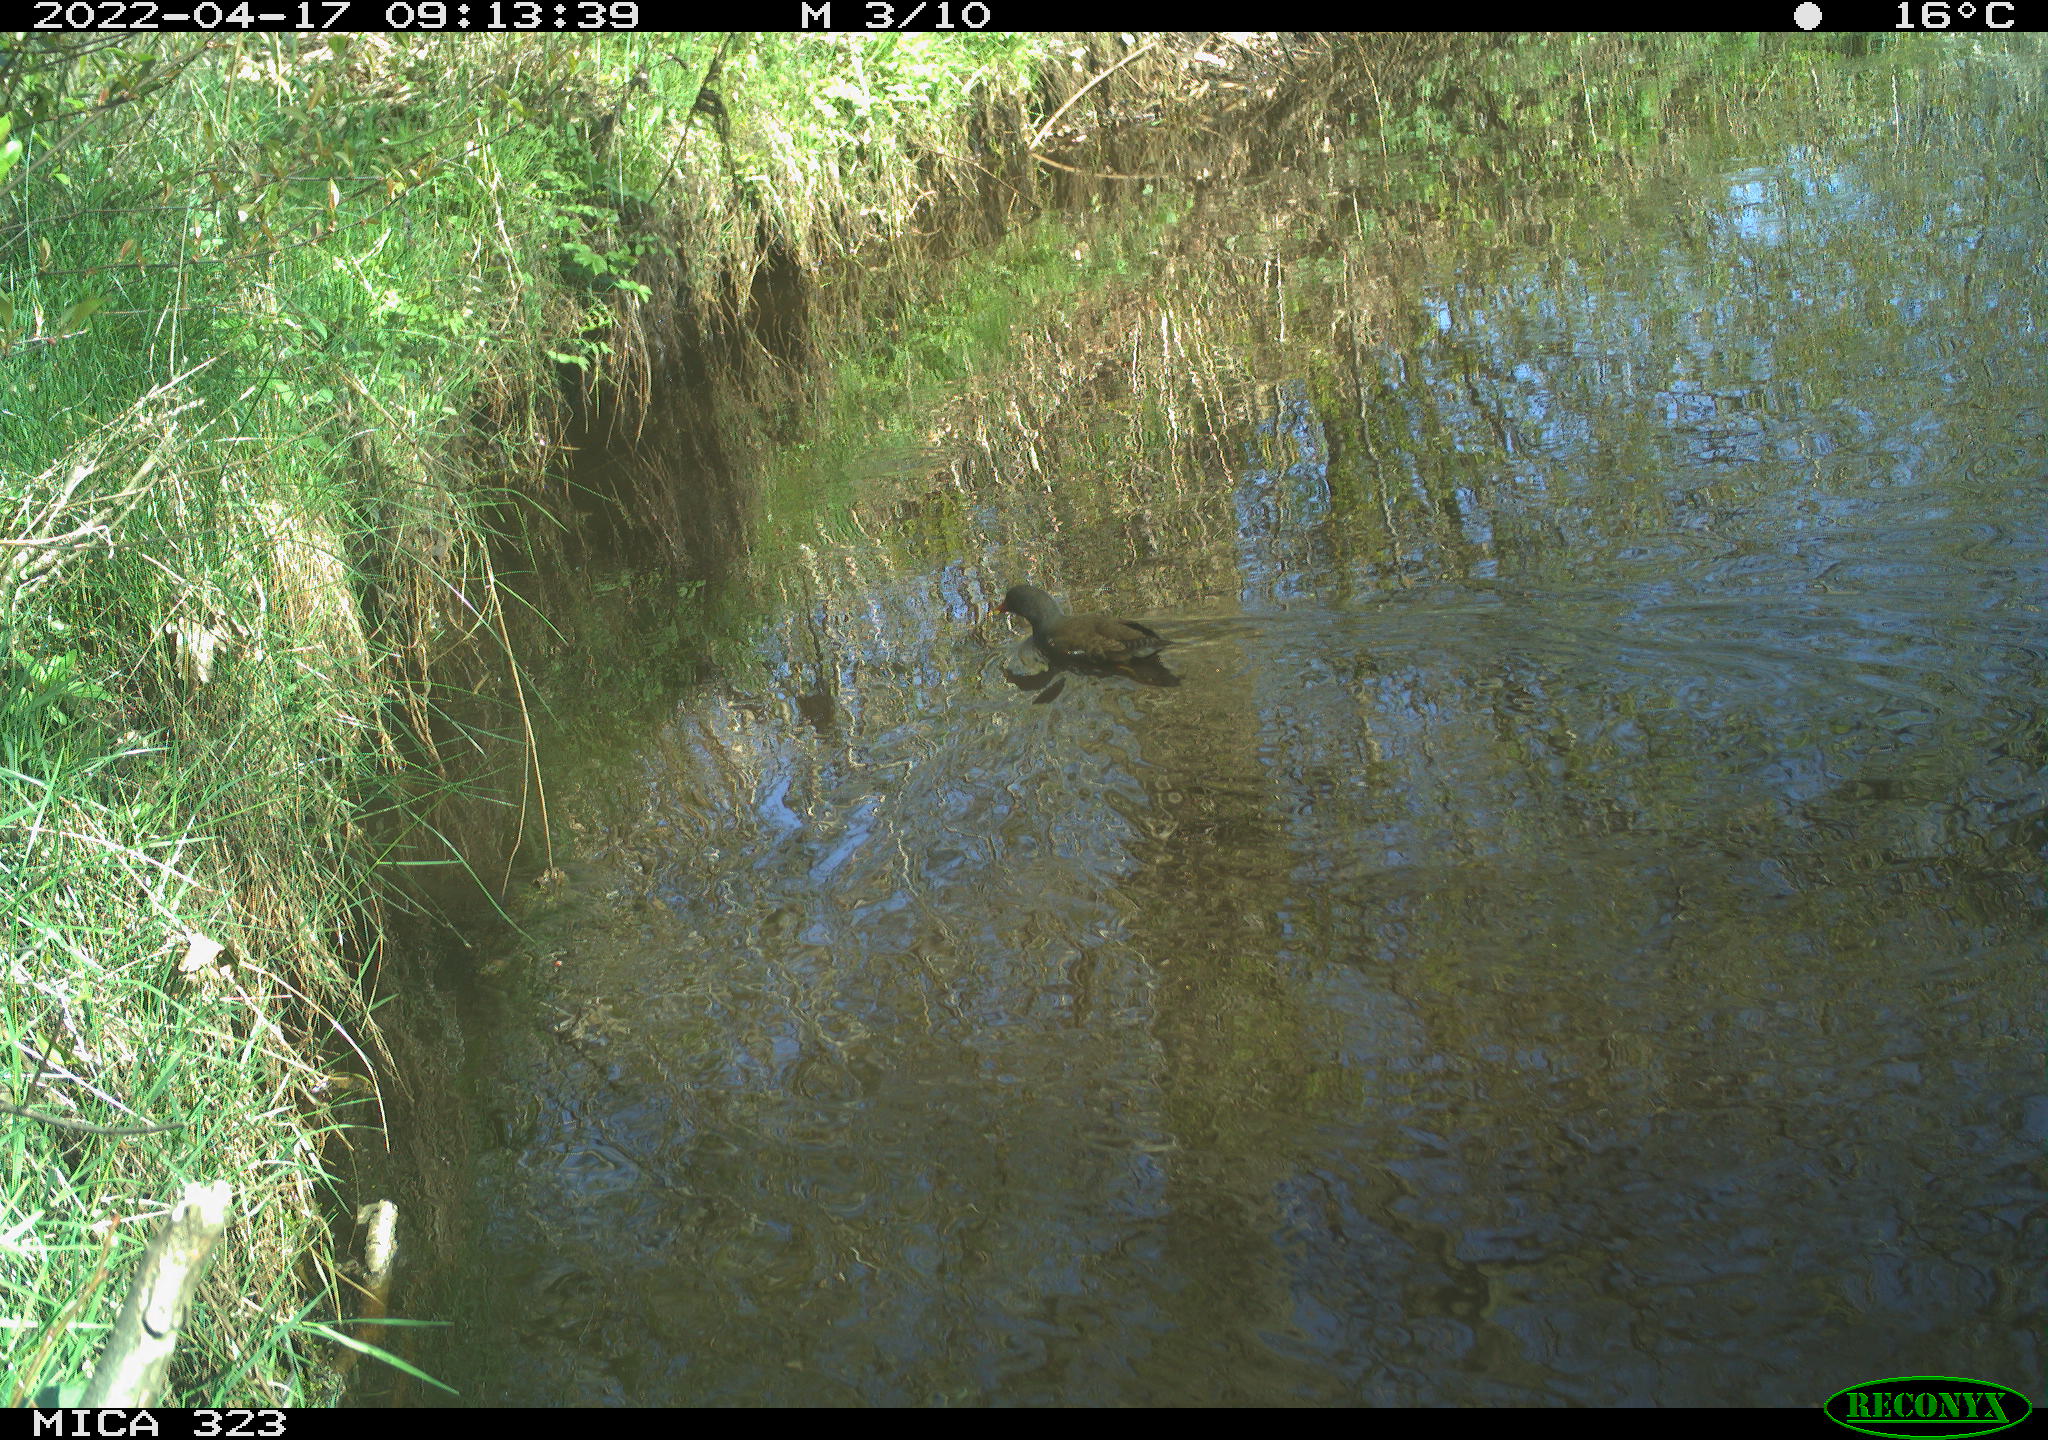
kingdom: Animalia
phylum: Chordata
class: Aves
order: Gruiformes
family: Rallidae
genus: Gallinula
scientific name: Gallinula chloropus
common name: Common moorhen
